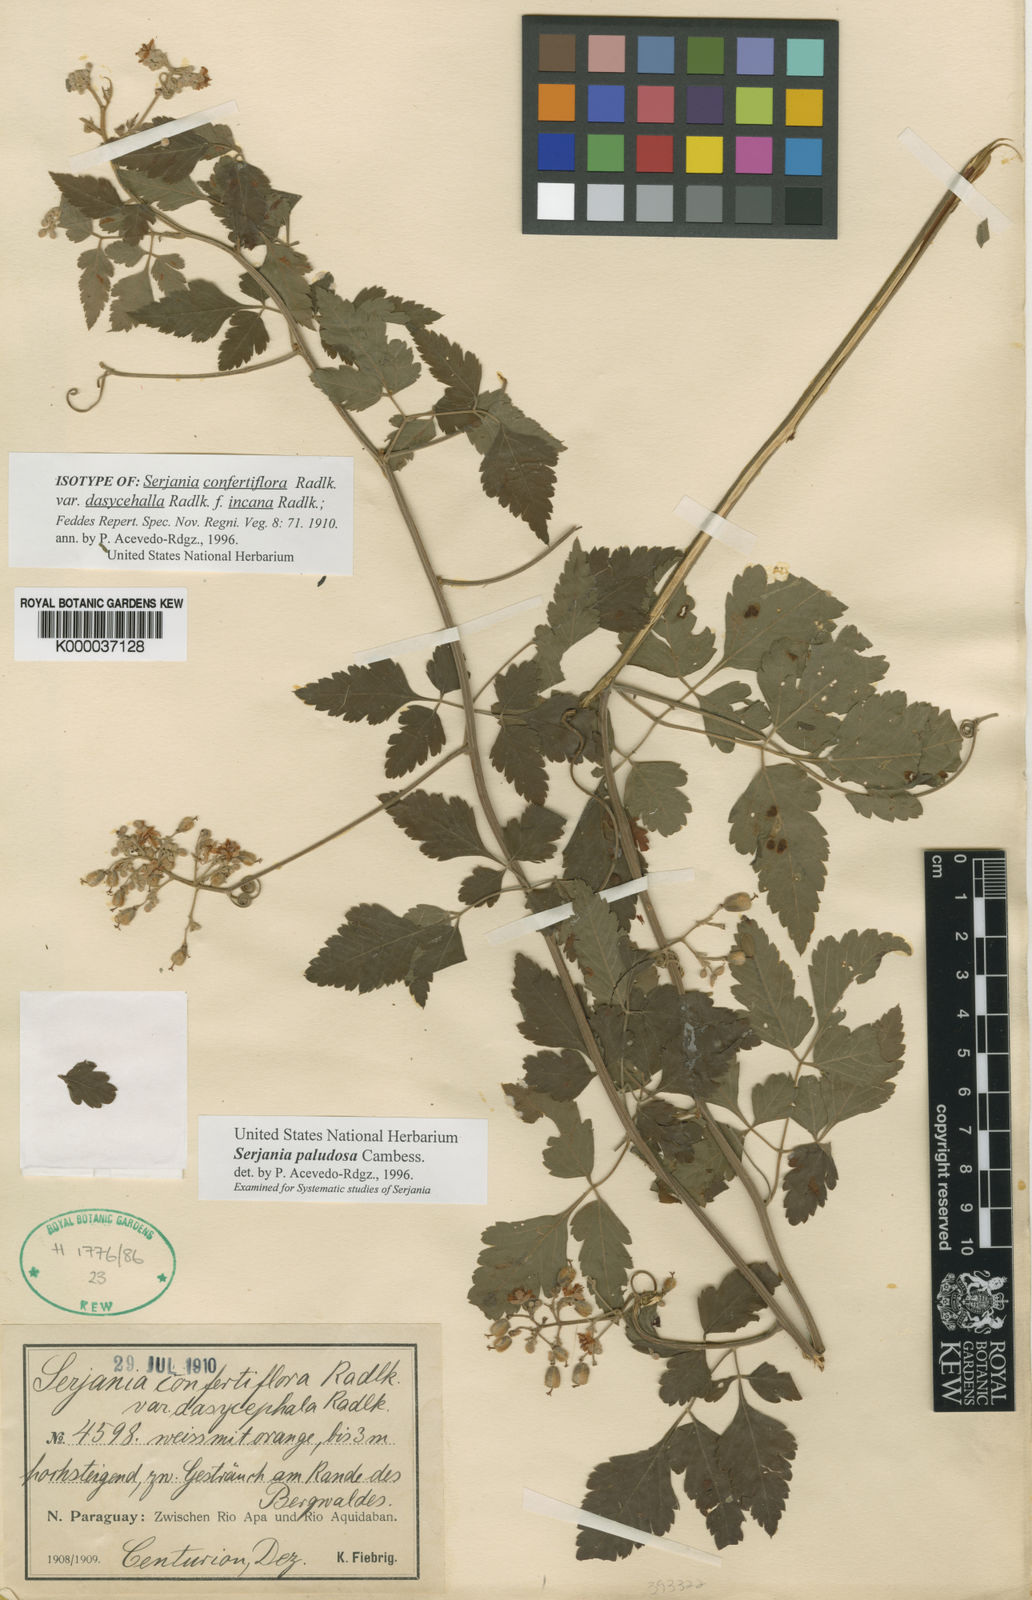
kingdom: Plantae
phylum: Tracheophyta
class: Magnoliopsida
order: Sapindales
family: Sapindaceae
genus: Serjania
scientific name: Serjania paludosa
